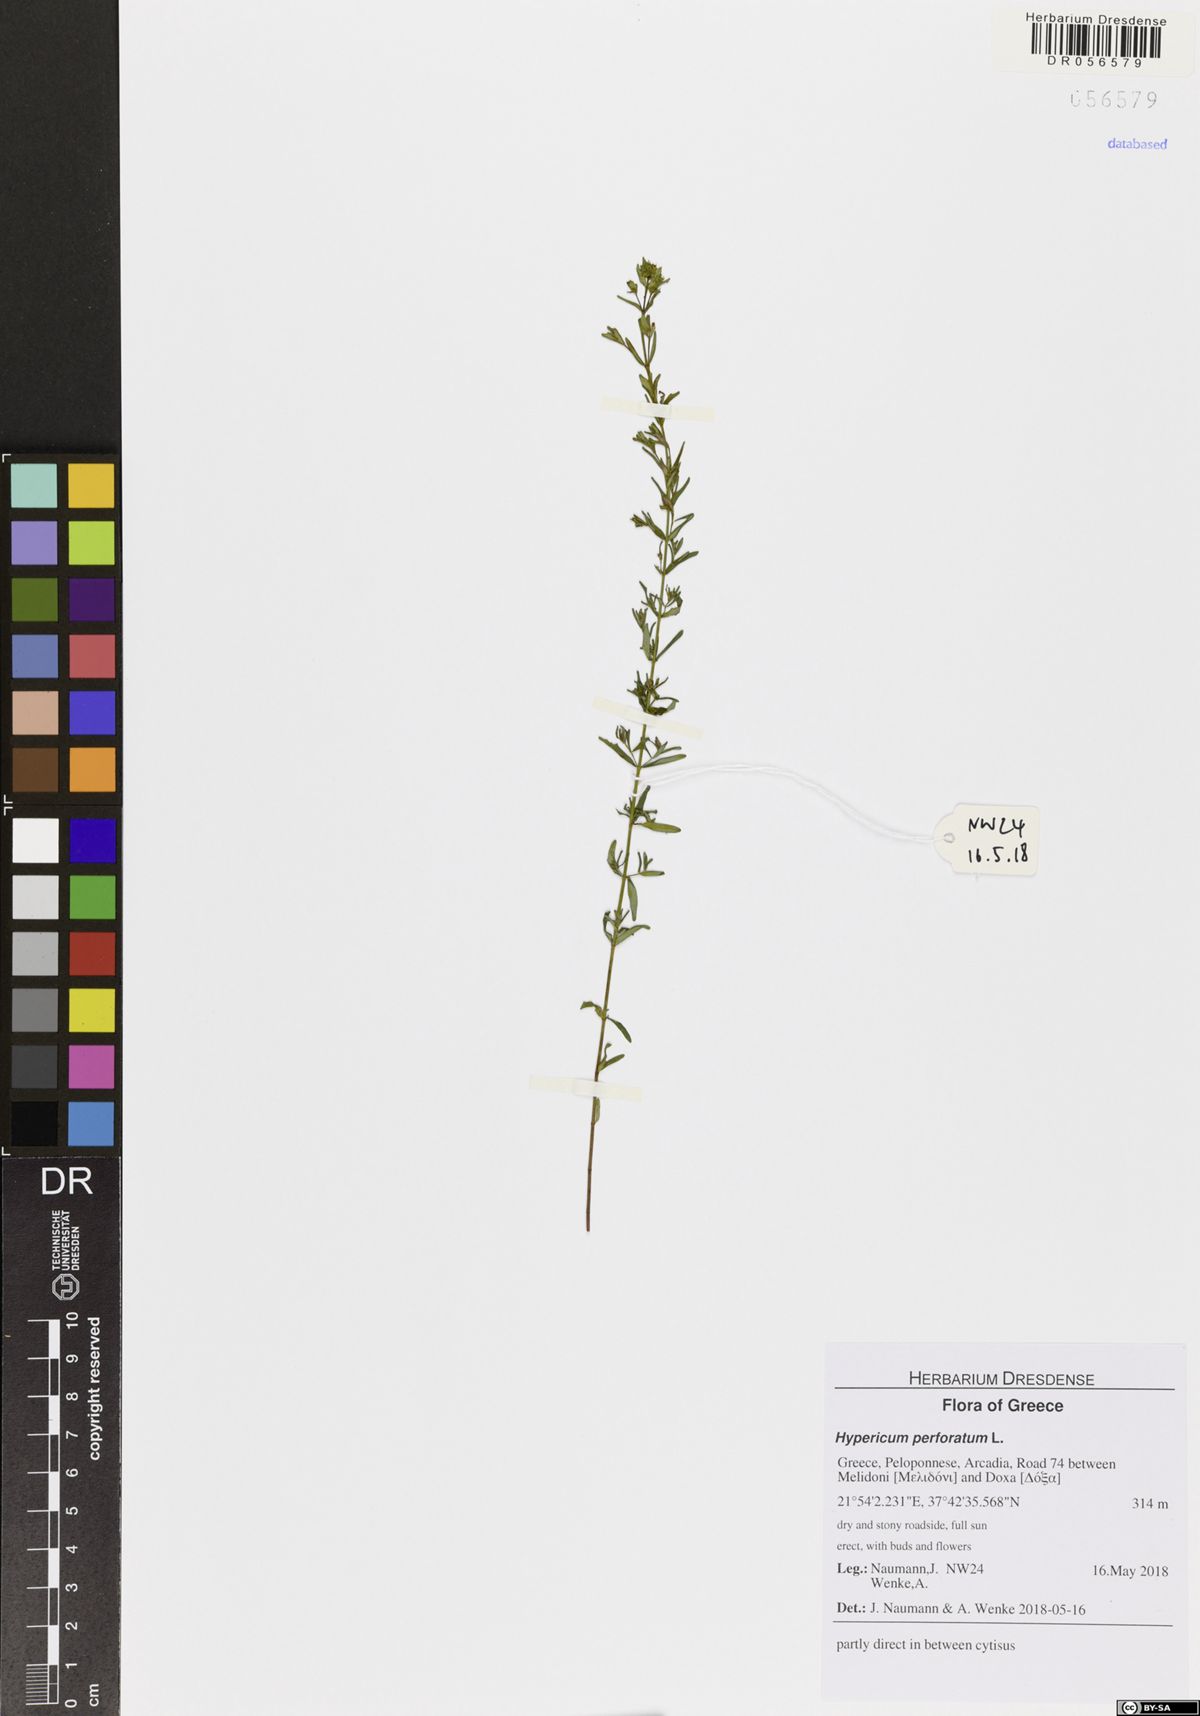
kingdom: Plantae
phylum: Tracheophyta
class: Magnoliopsida
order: Malpighiales
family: Hypericaceae
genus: Hypericum
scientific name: Hypericum perforatum
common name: Common st. johnswort
